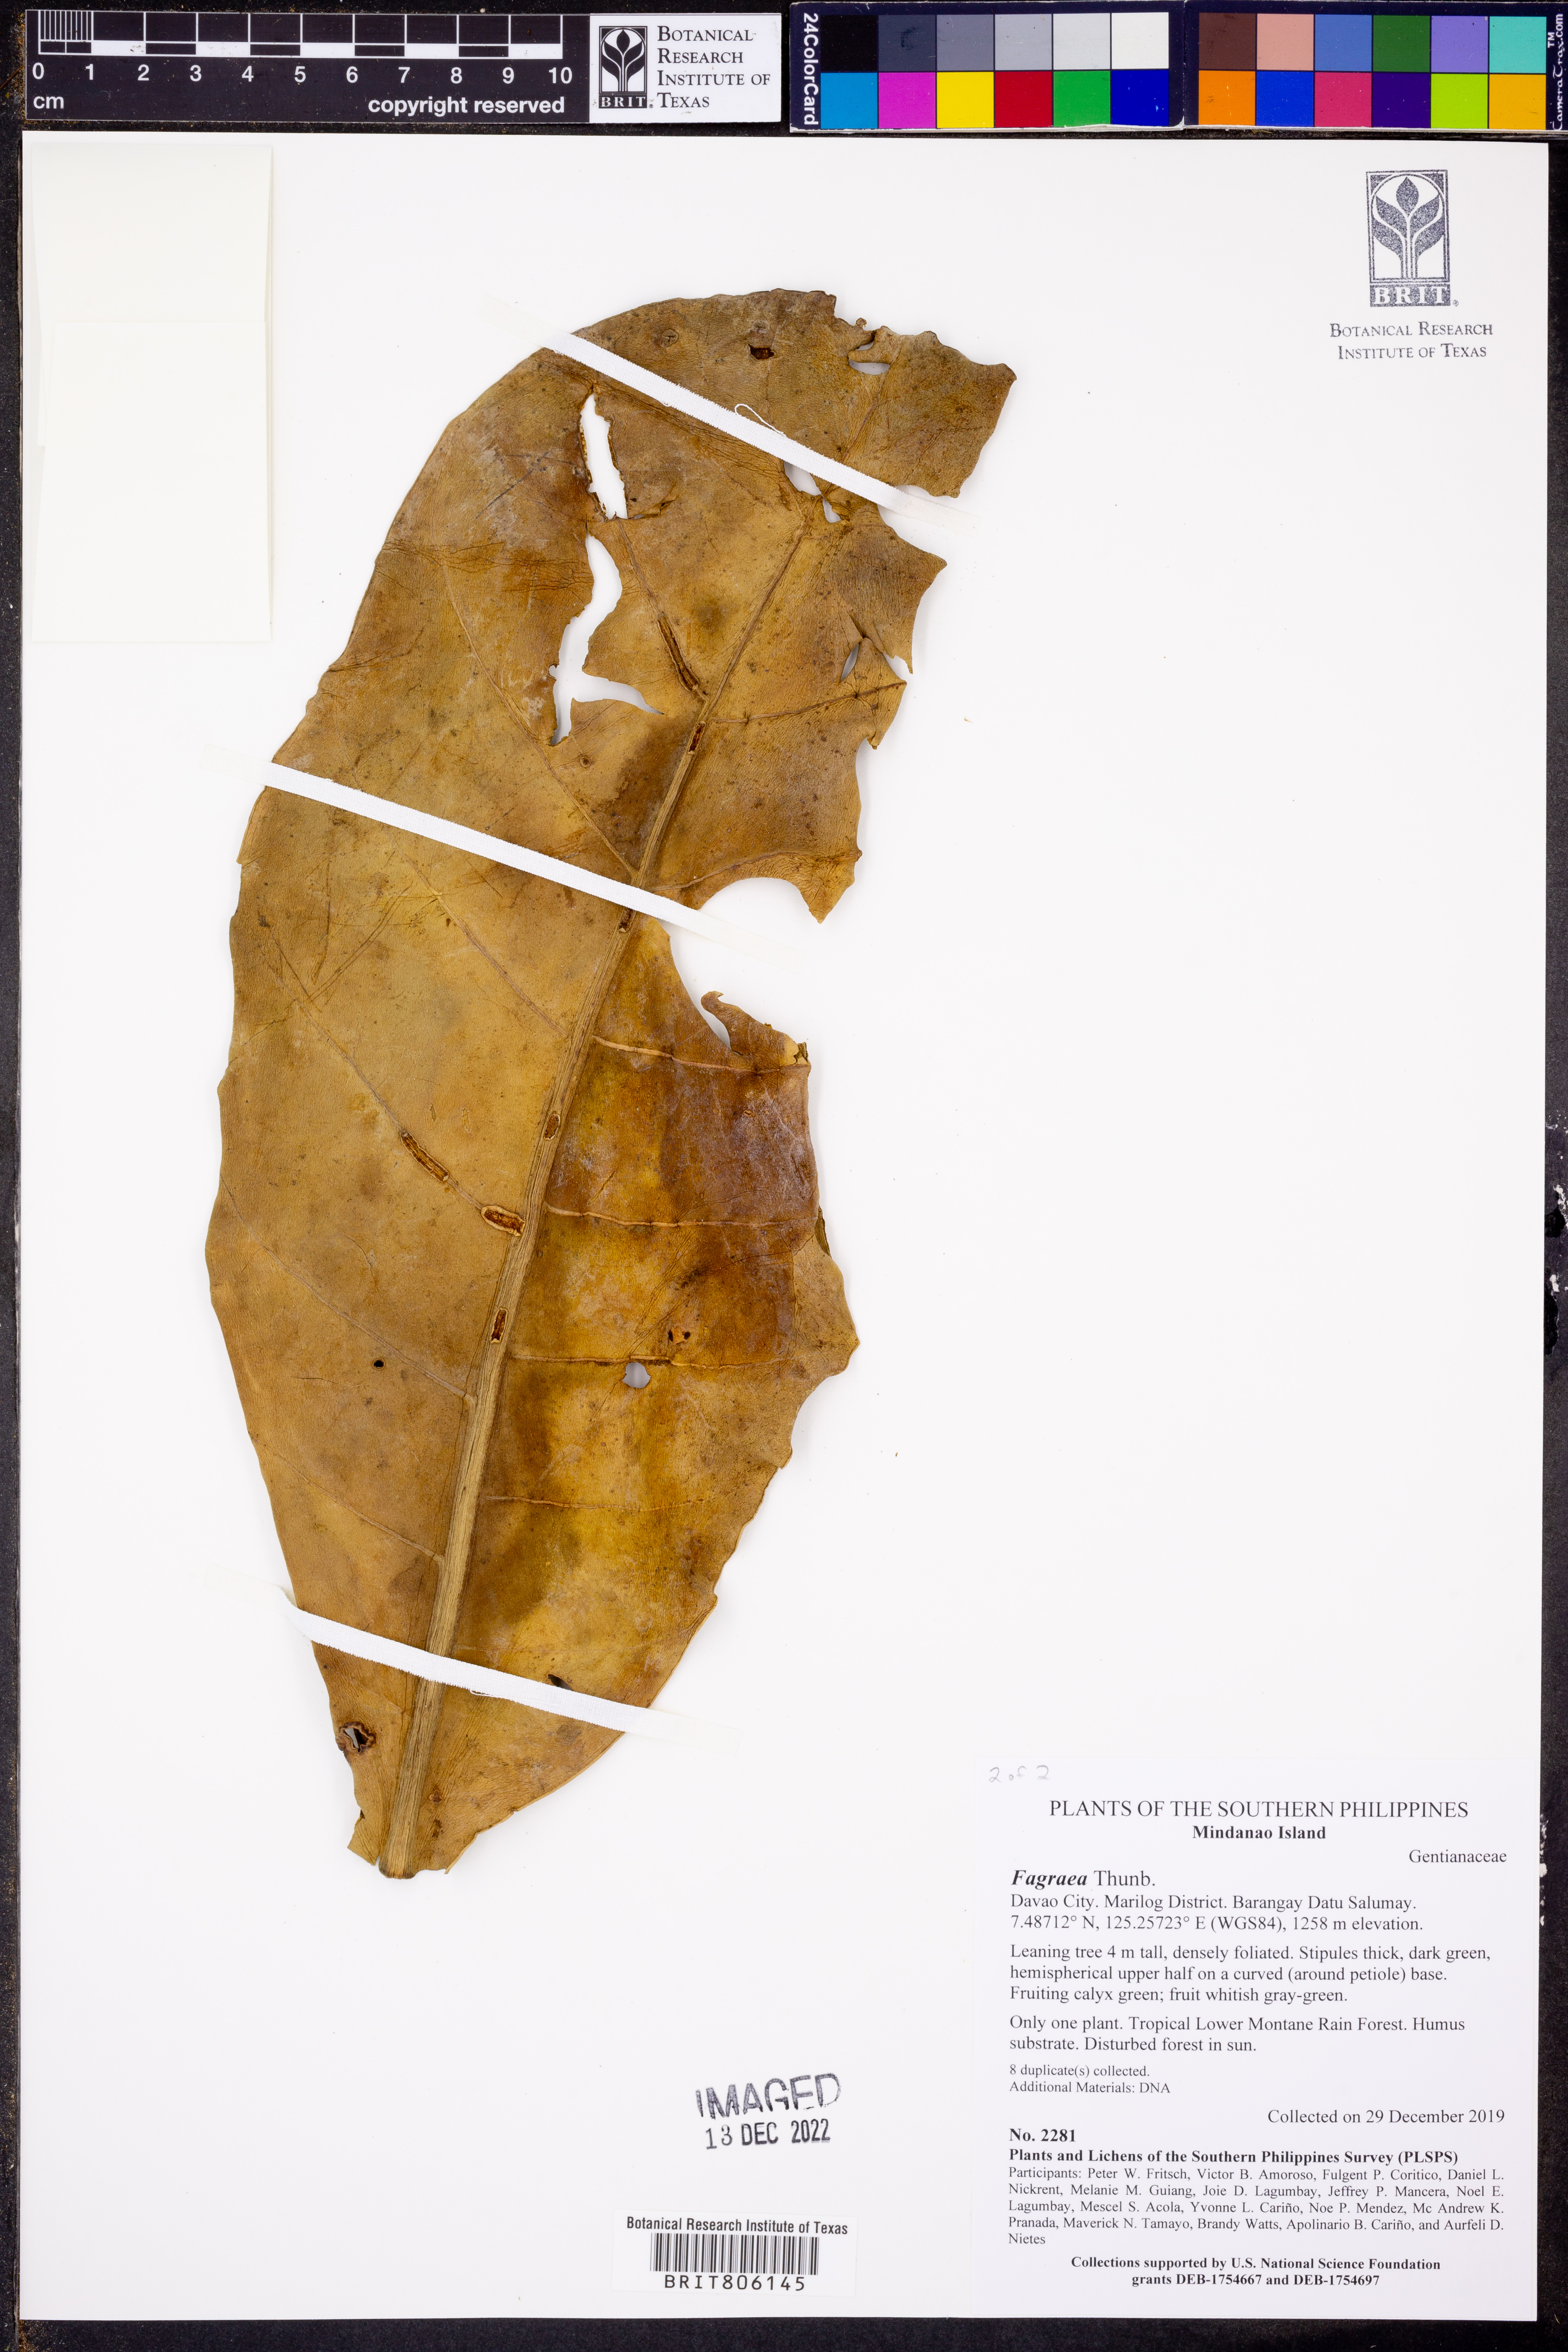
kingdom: Plantae
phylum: Tracheophyta
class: Magnoliopsida
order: Gentianales
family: Gentianaceae
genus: Fagraea
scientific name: Fagraea
